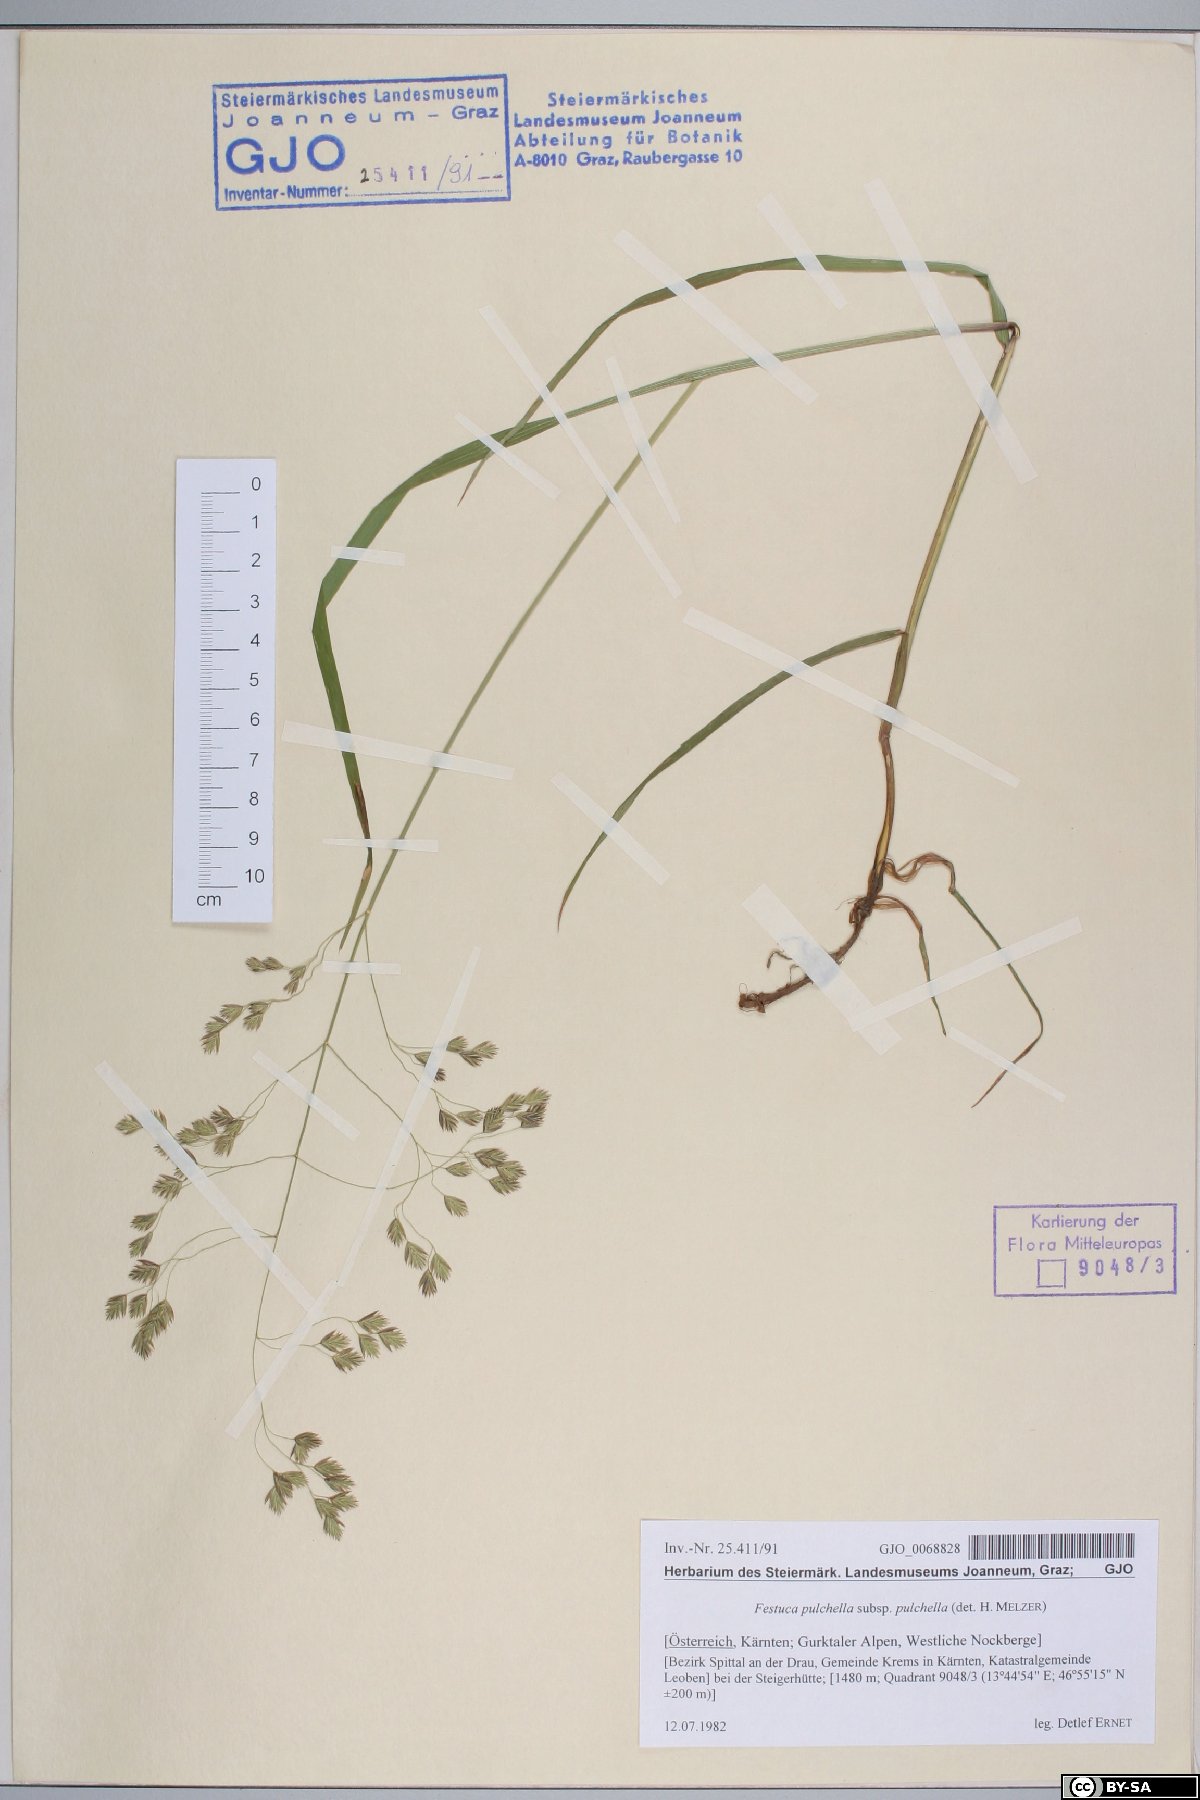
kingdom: Plantae
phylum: Tracheophyta
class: Liliopsida
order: Poales
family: Poaceae
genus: Festuca
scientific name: Festuca pulchella
